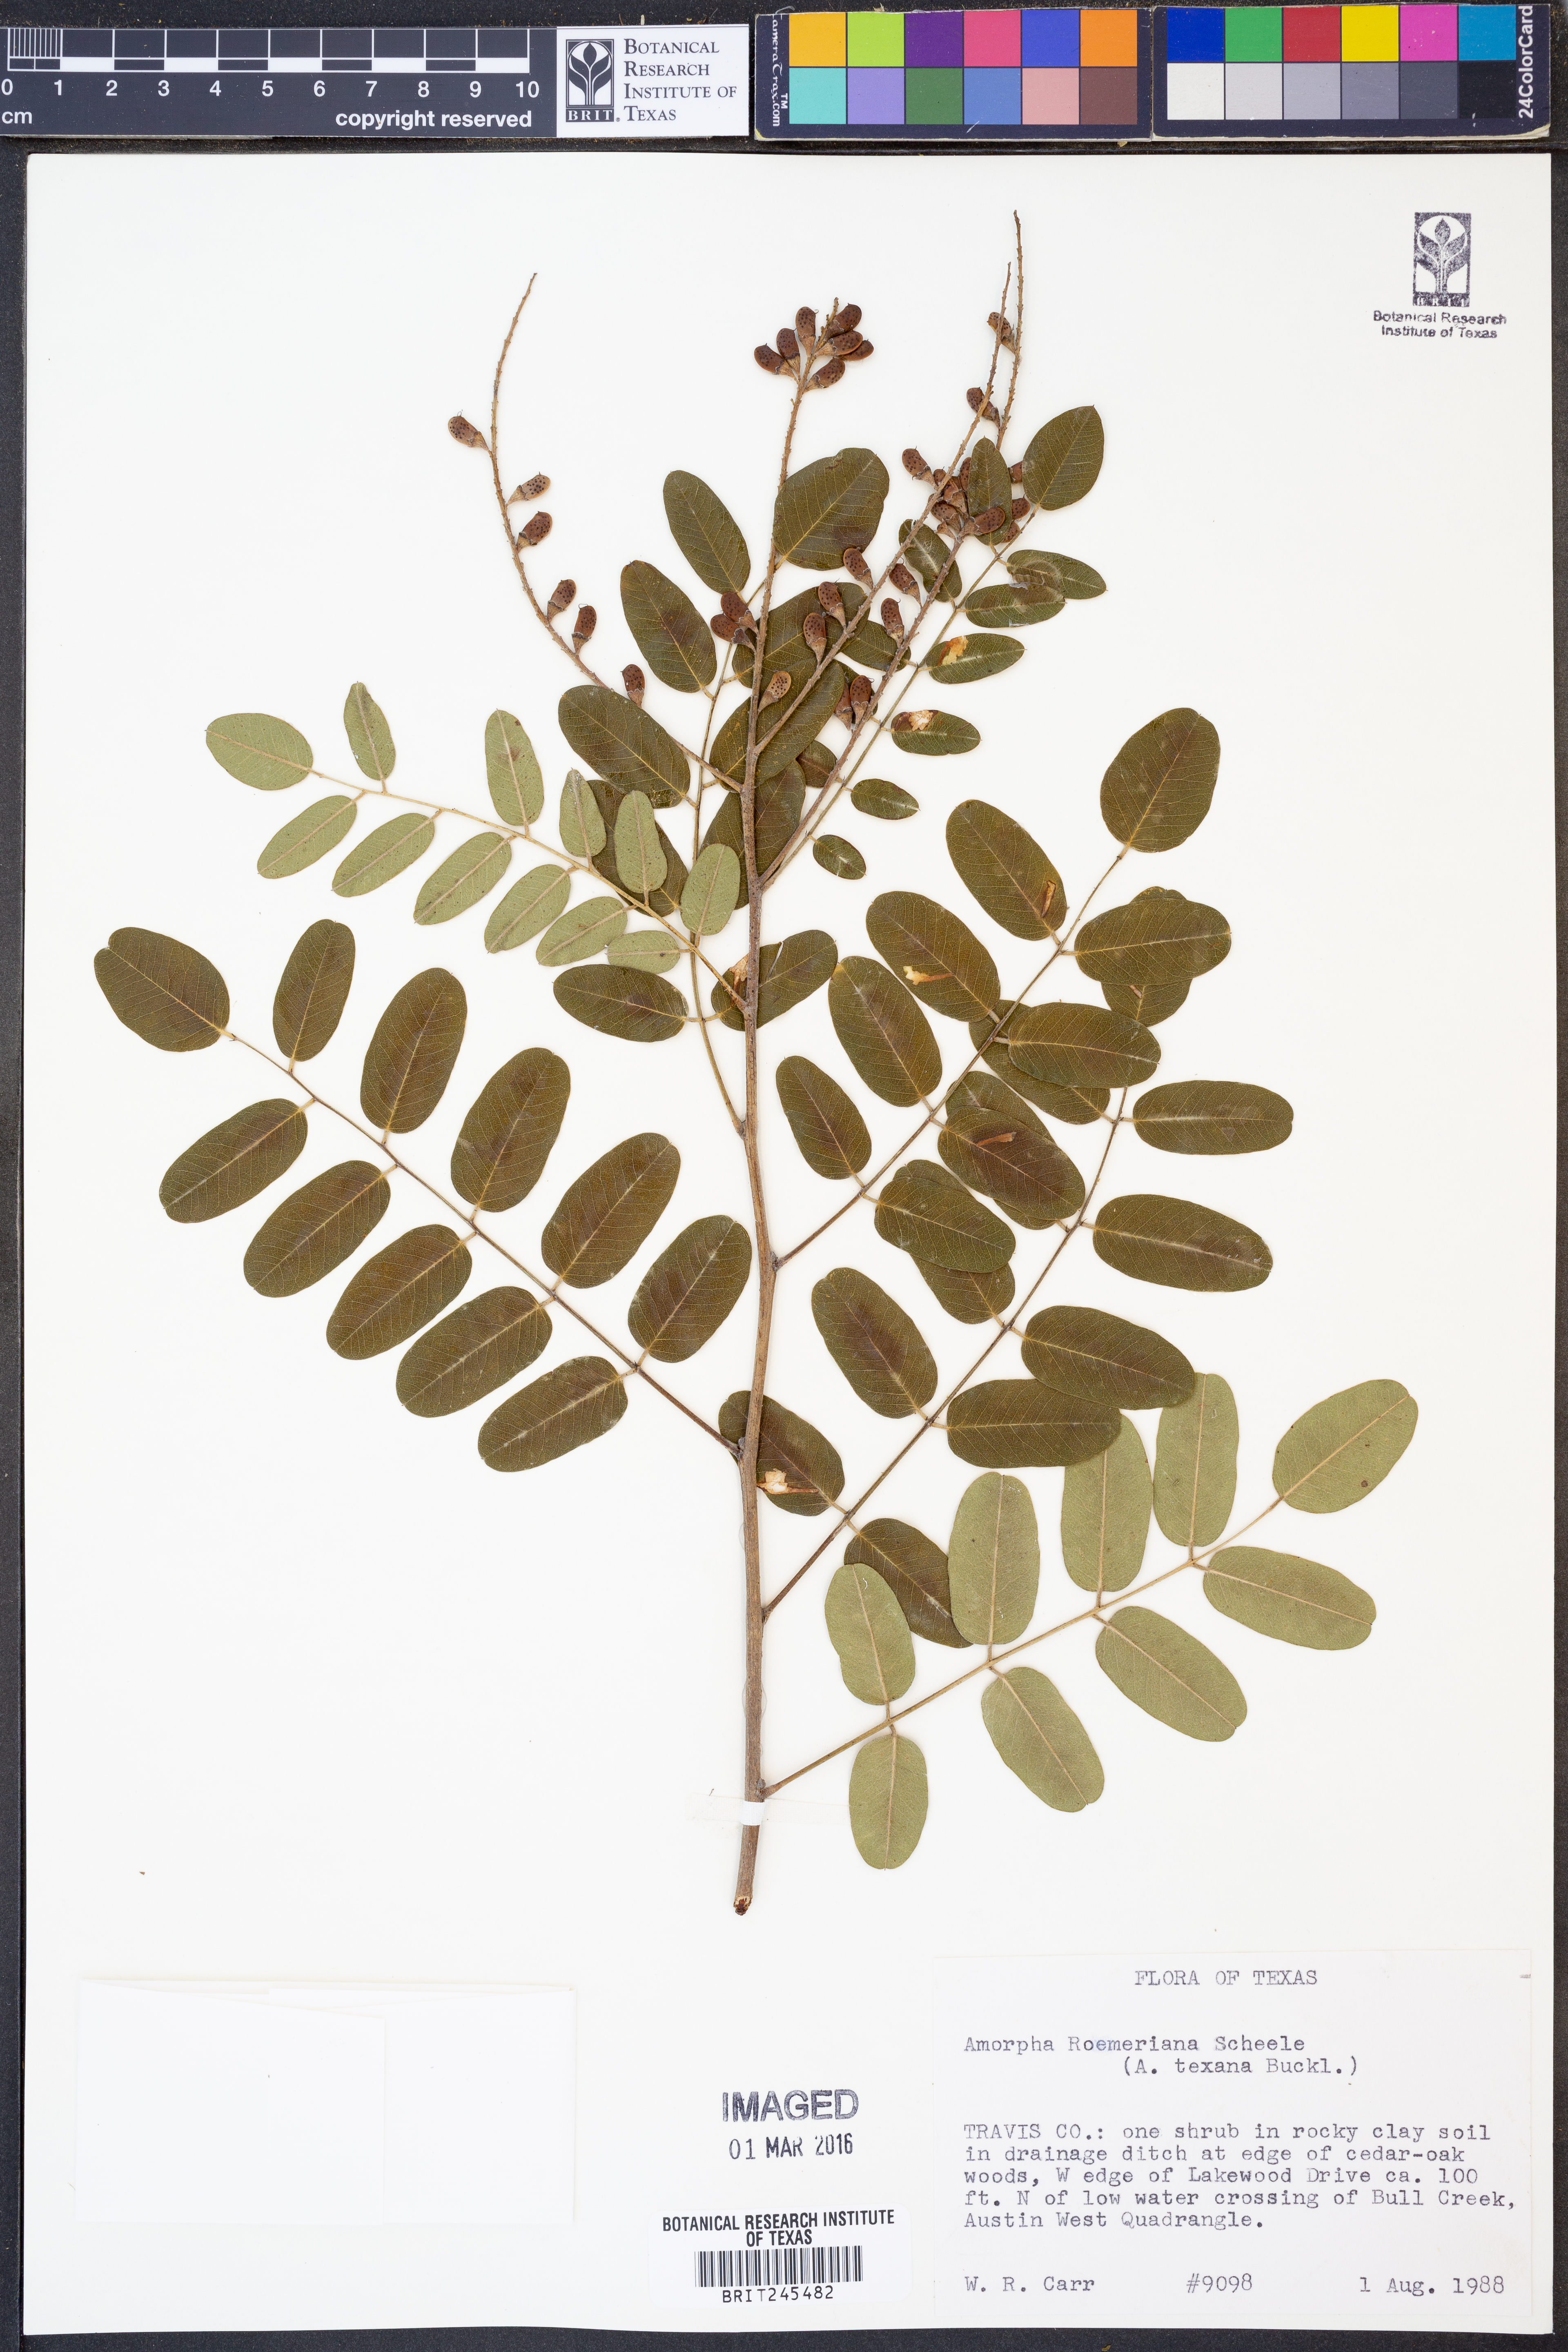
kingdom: Plantae
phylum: Tracheophyta
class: Magnoliopsida
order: Fabales
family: Fabaceae
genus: Amorpha
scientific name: Amorpha roemeriana
